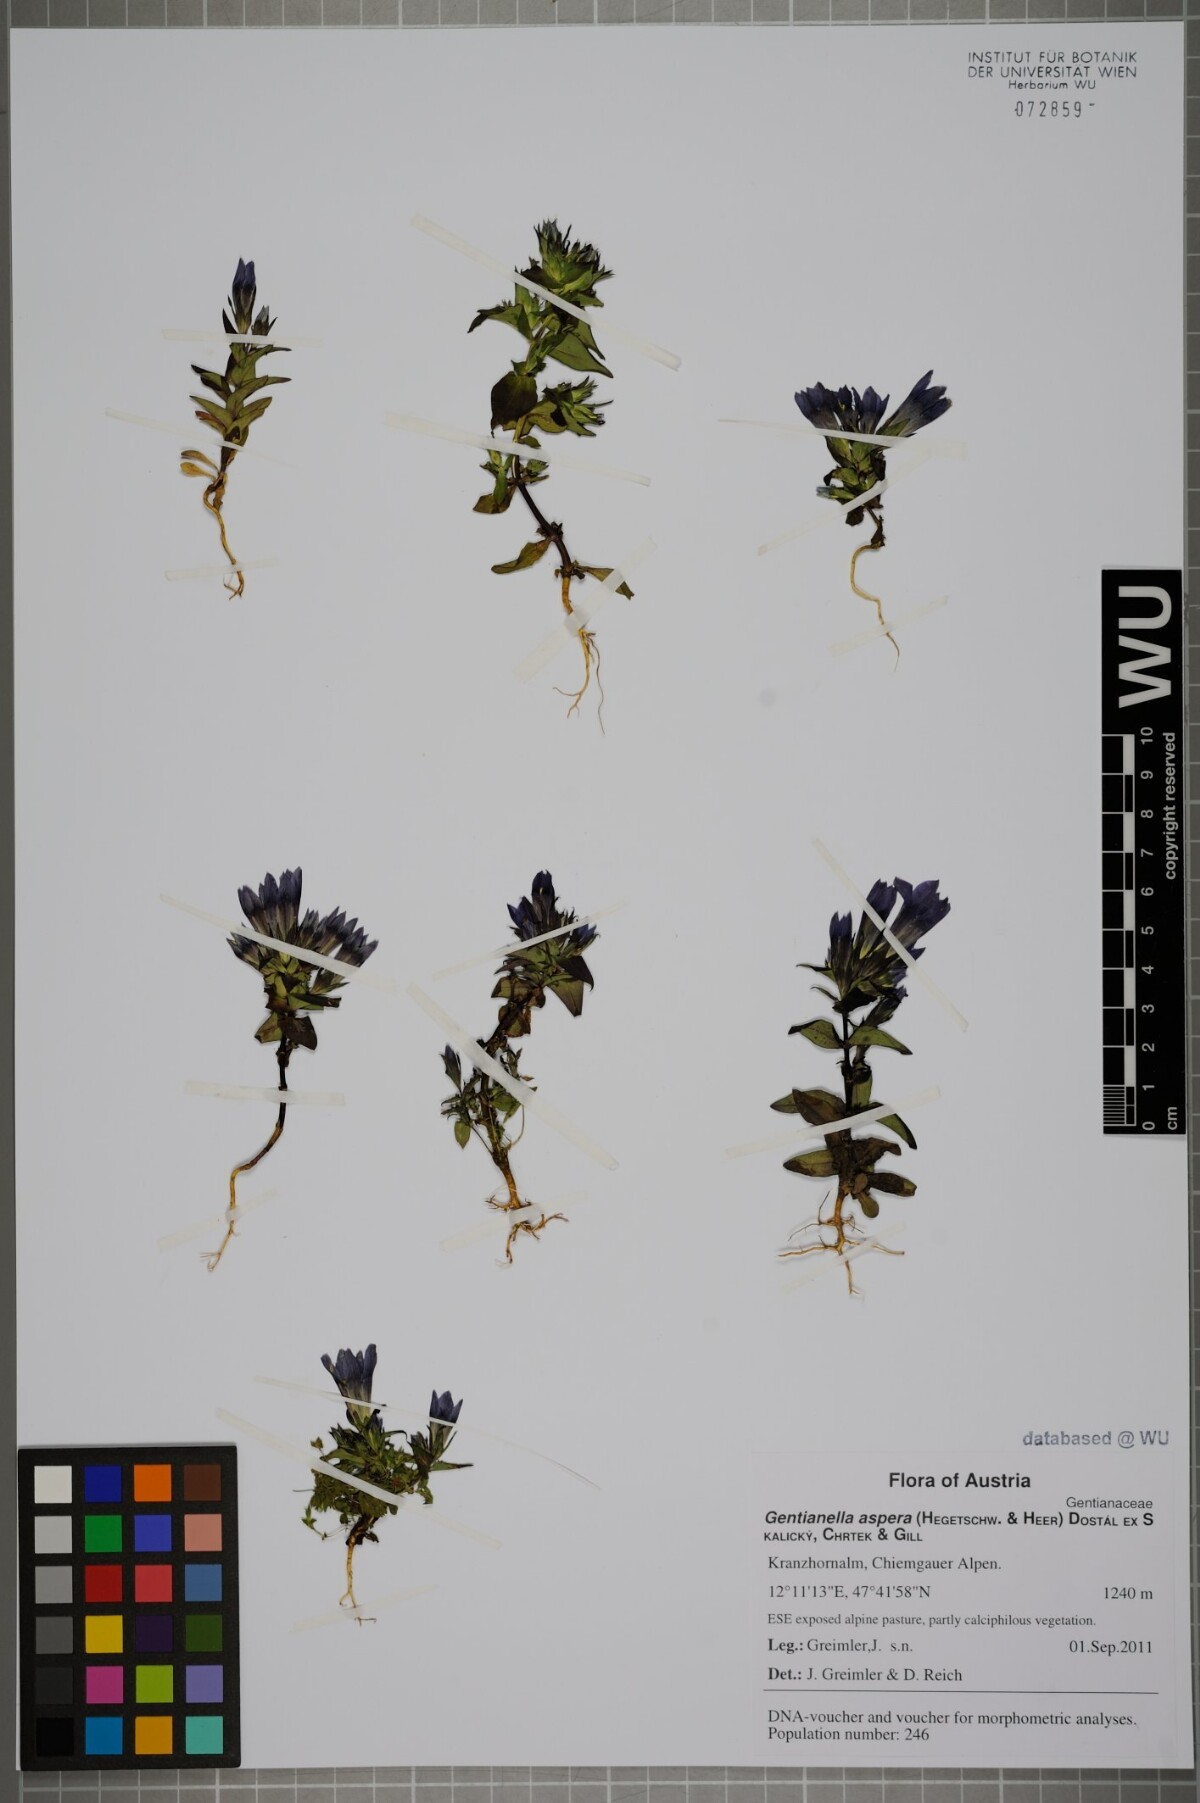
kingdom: Plantae
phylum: Tracheophyta
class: Magnoliopsida
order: Gentianales
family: Gentianaceae
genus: Gentianella
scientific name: Gentianella obtusifolia
